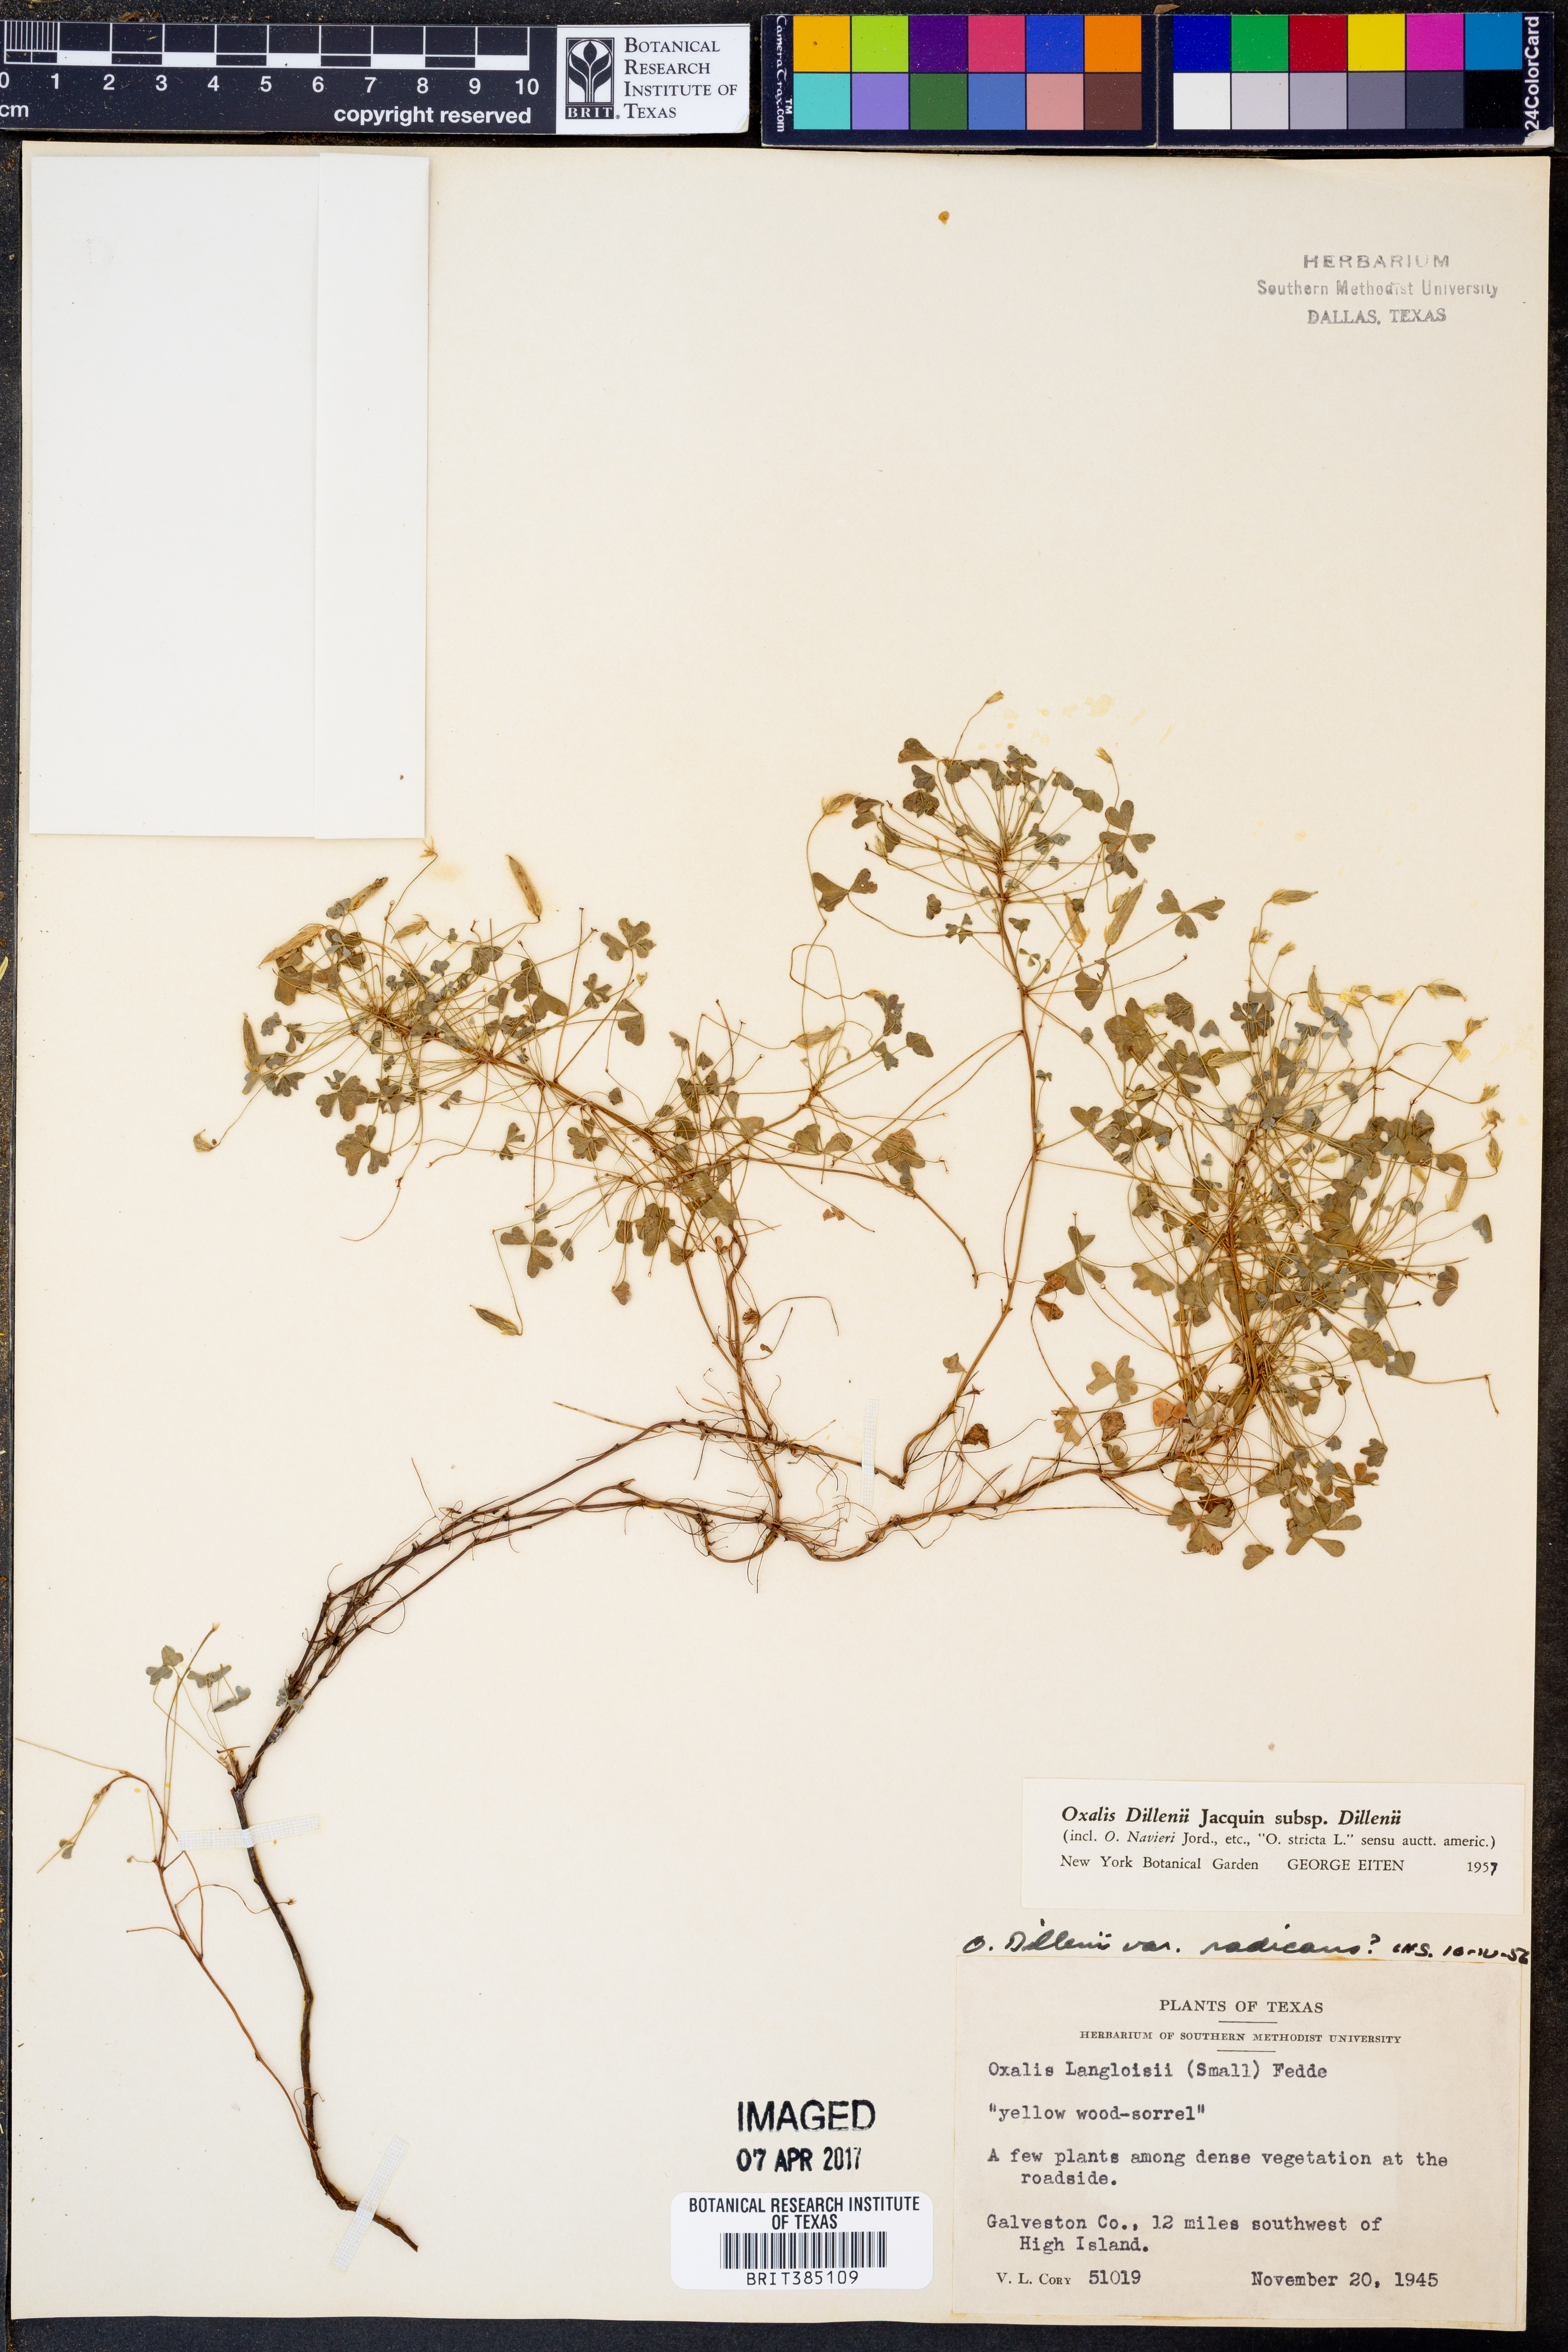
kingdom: Plantae
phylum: Tracheophyta
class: Magnoliopsida
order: Oxalidales
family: Oxalidaceae
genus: Oxalis
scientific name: Oxalis dillenii
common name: Sussex yellow-sorrel
